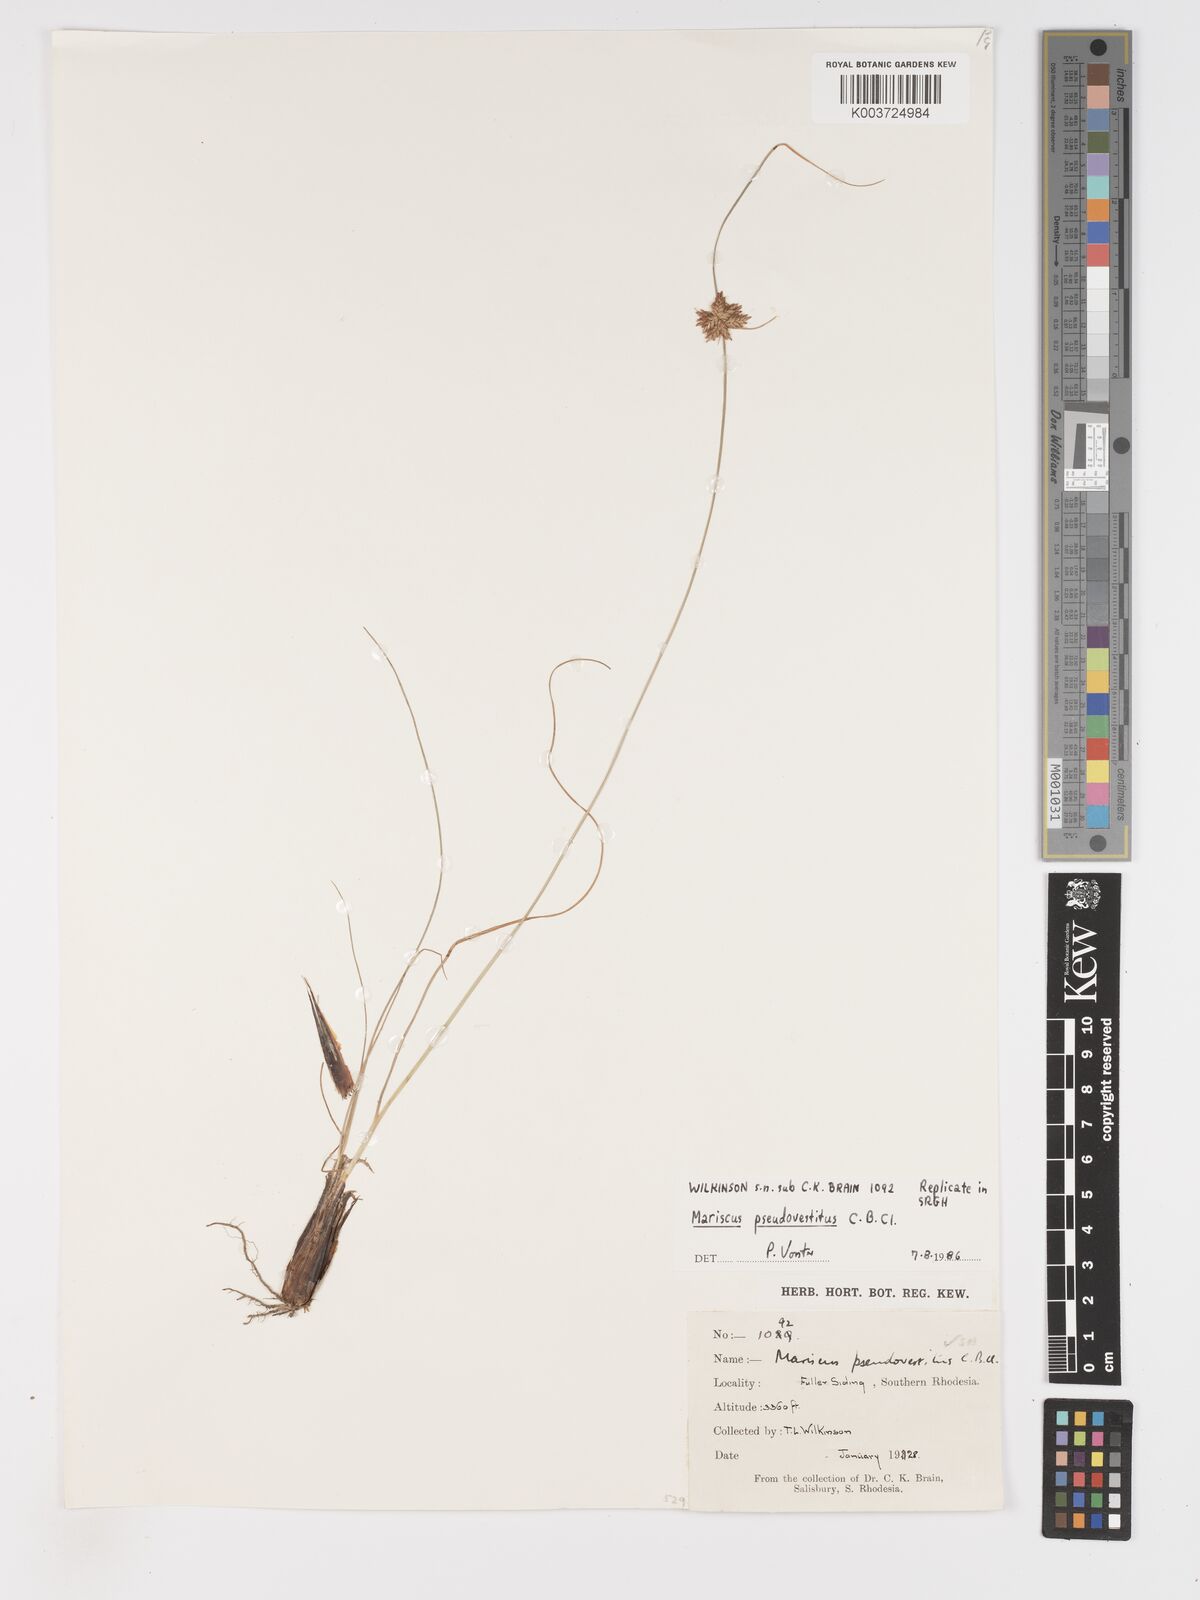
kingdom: Plantae
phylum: Tracheophyta
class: Liliopsida
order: Poales
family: Cyperaceae
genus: Cyperus
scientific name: Cyperus pseudovestitus
